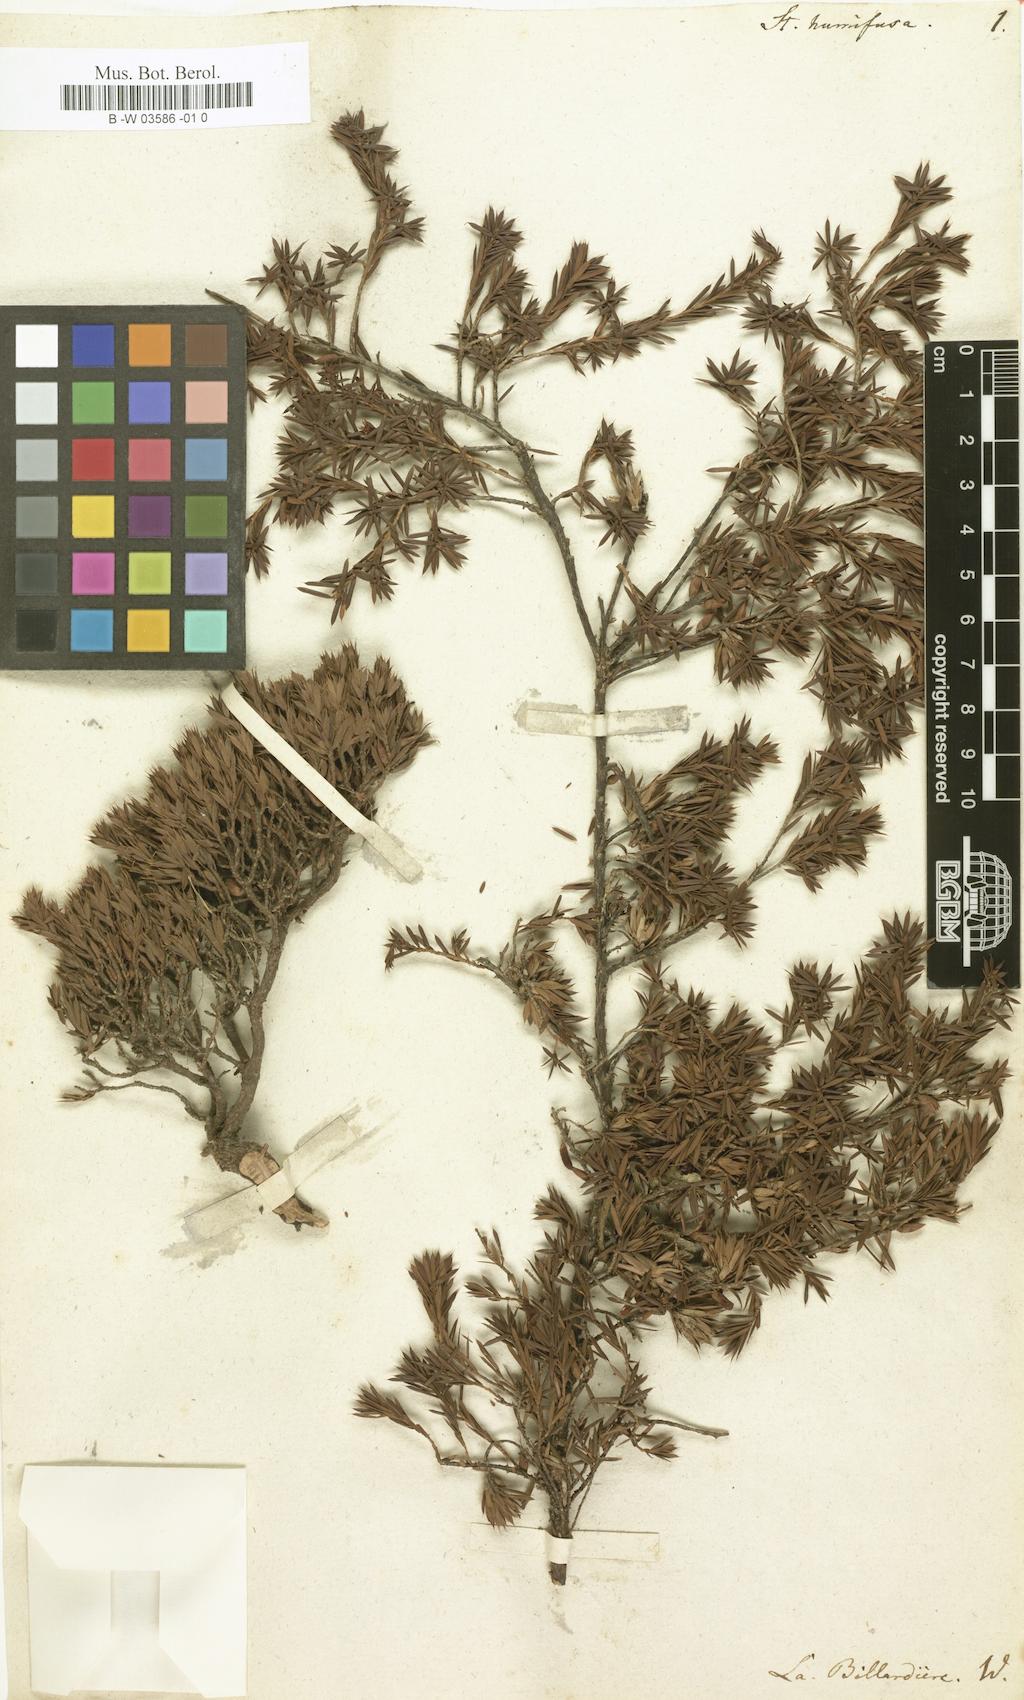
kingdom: Plantae
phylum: Tracheophyta
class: Magnoliopsida
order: Ericales
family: Ericaceae
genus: Styphelia
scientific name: Styphelia humifusa
